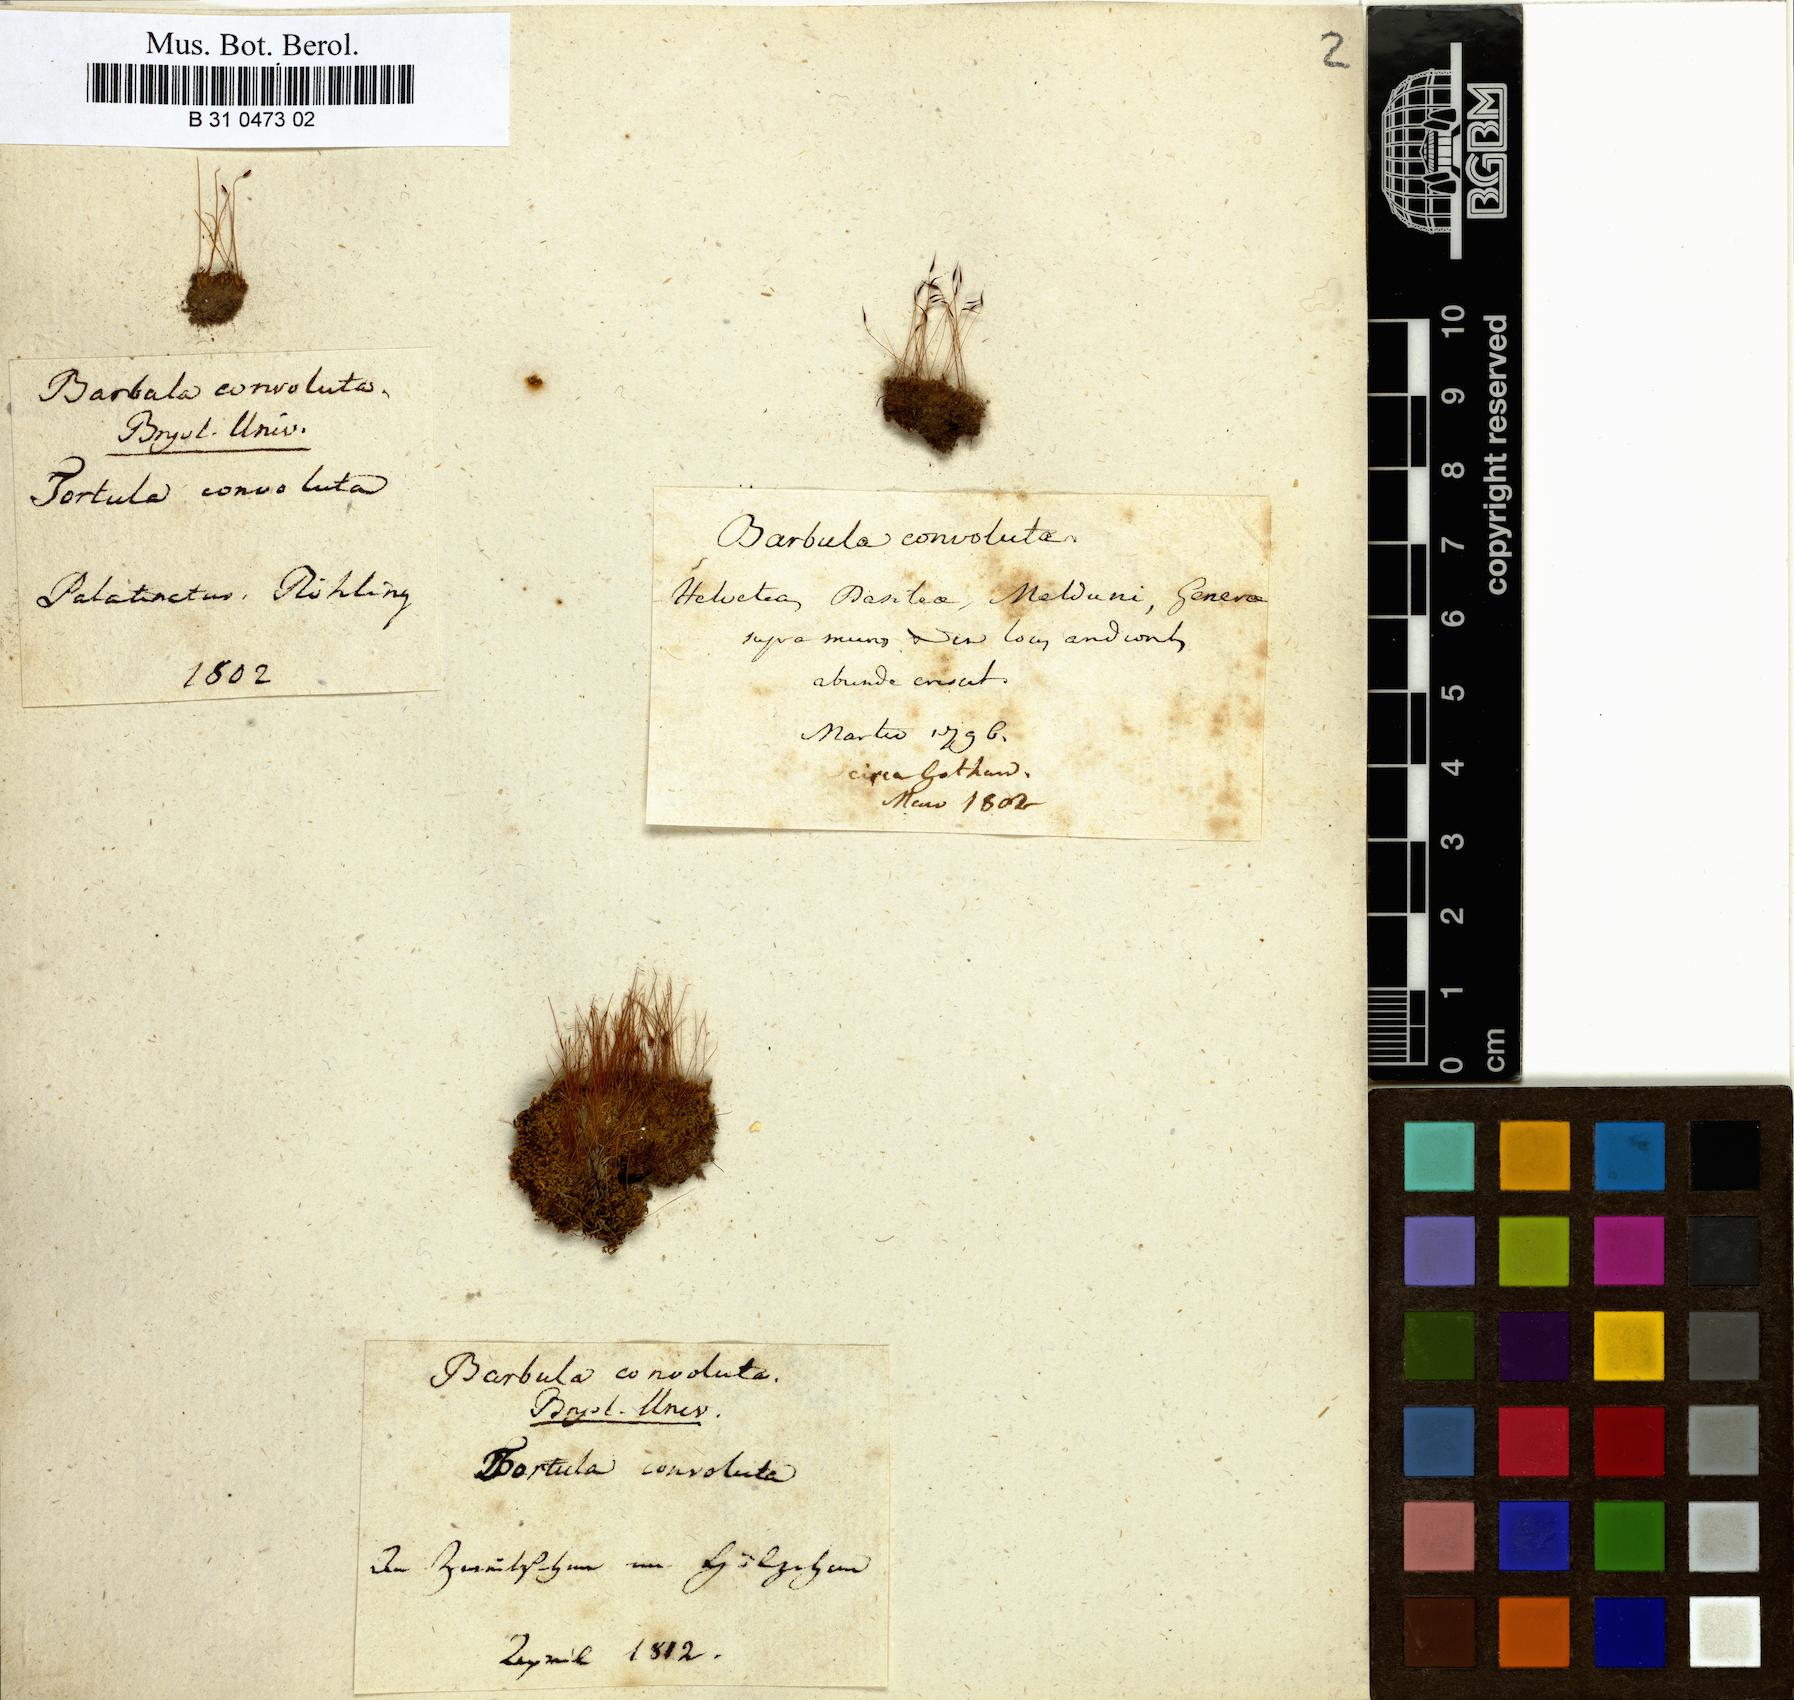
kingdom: Plantae
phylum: Bryophyta
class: Bryopsida
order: Pottiales
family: Pottiaceae
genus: Streblotrichum
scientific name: Streblotrichum convolutum
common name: Lesser bird's-claw beard-moss
